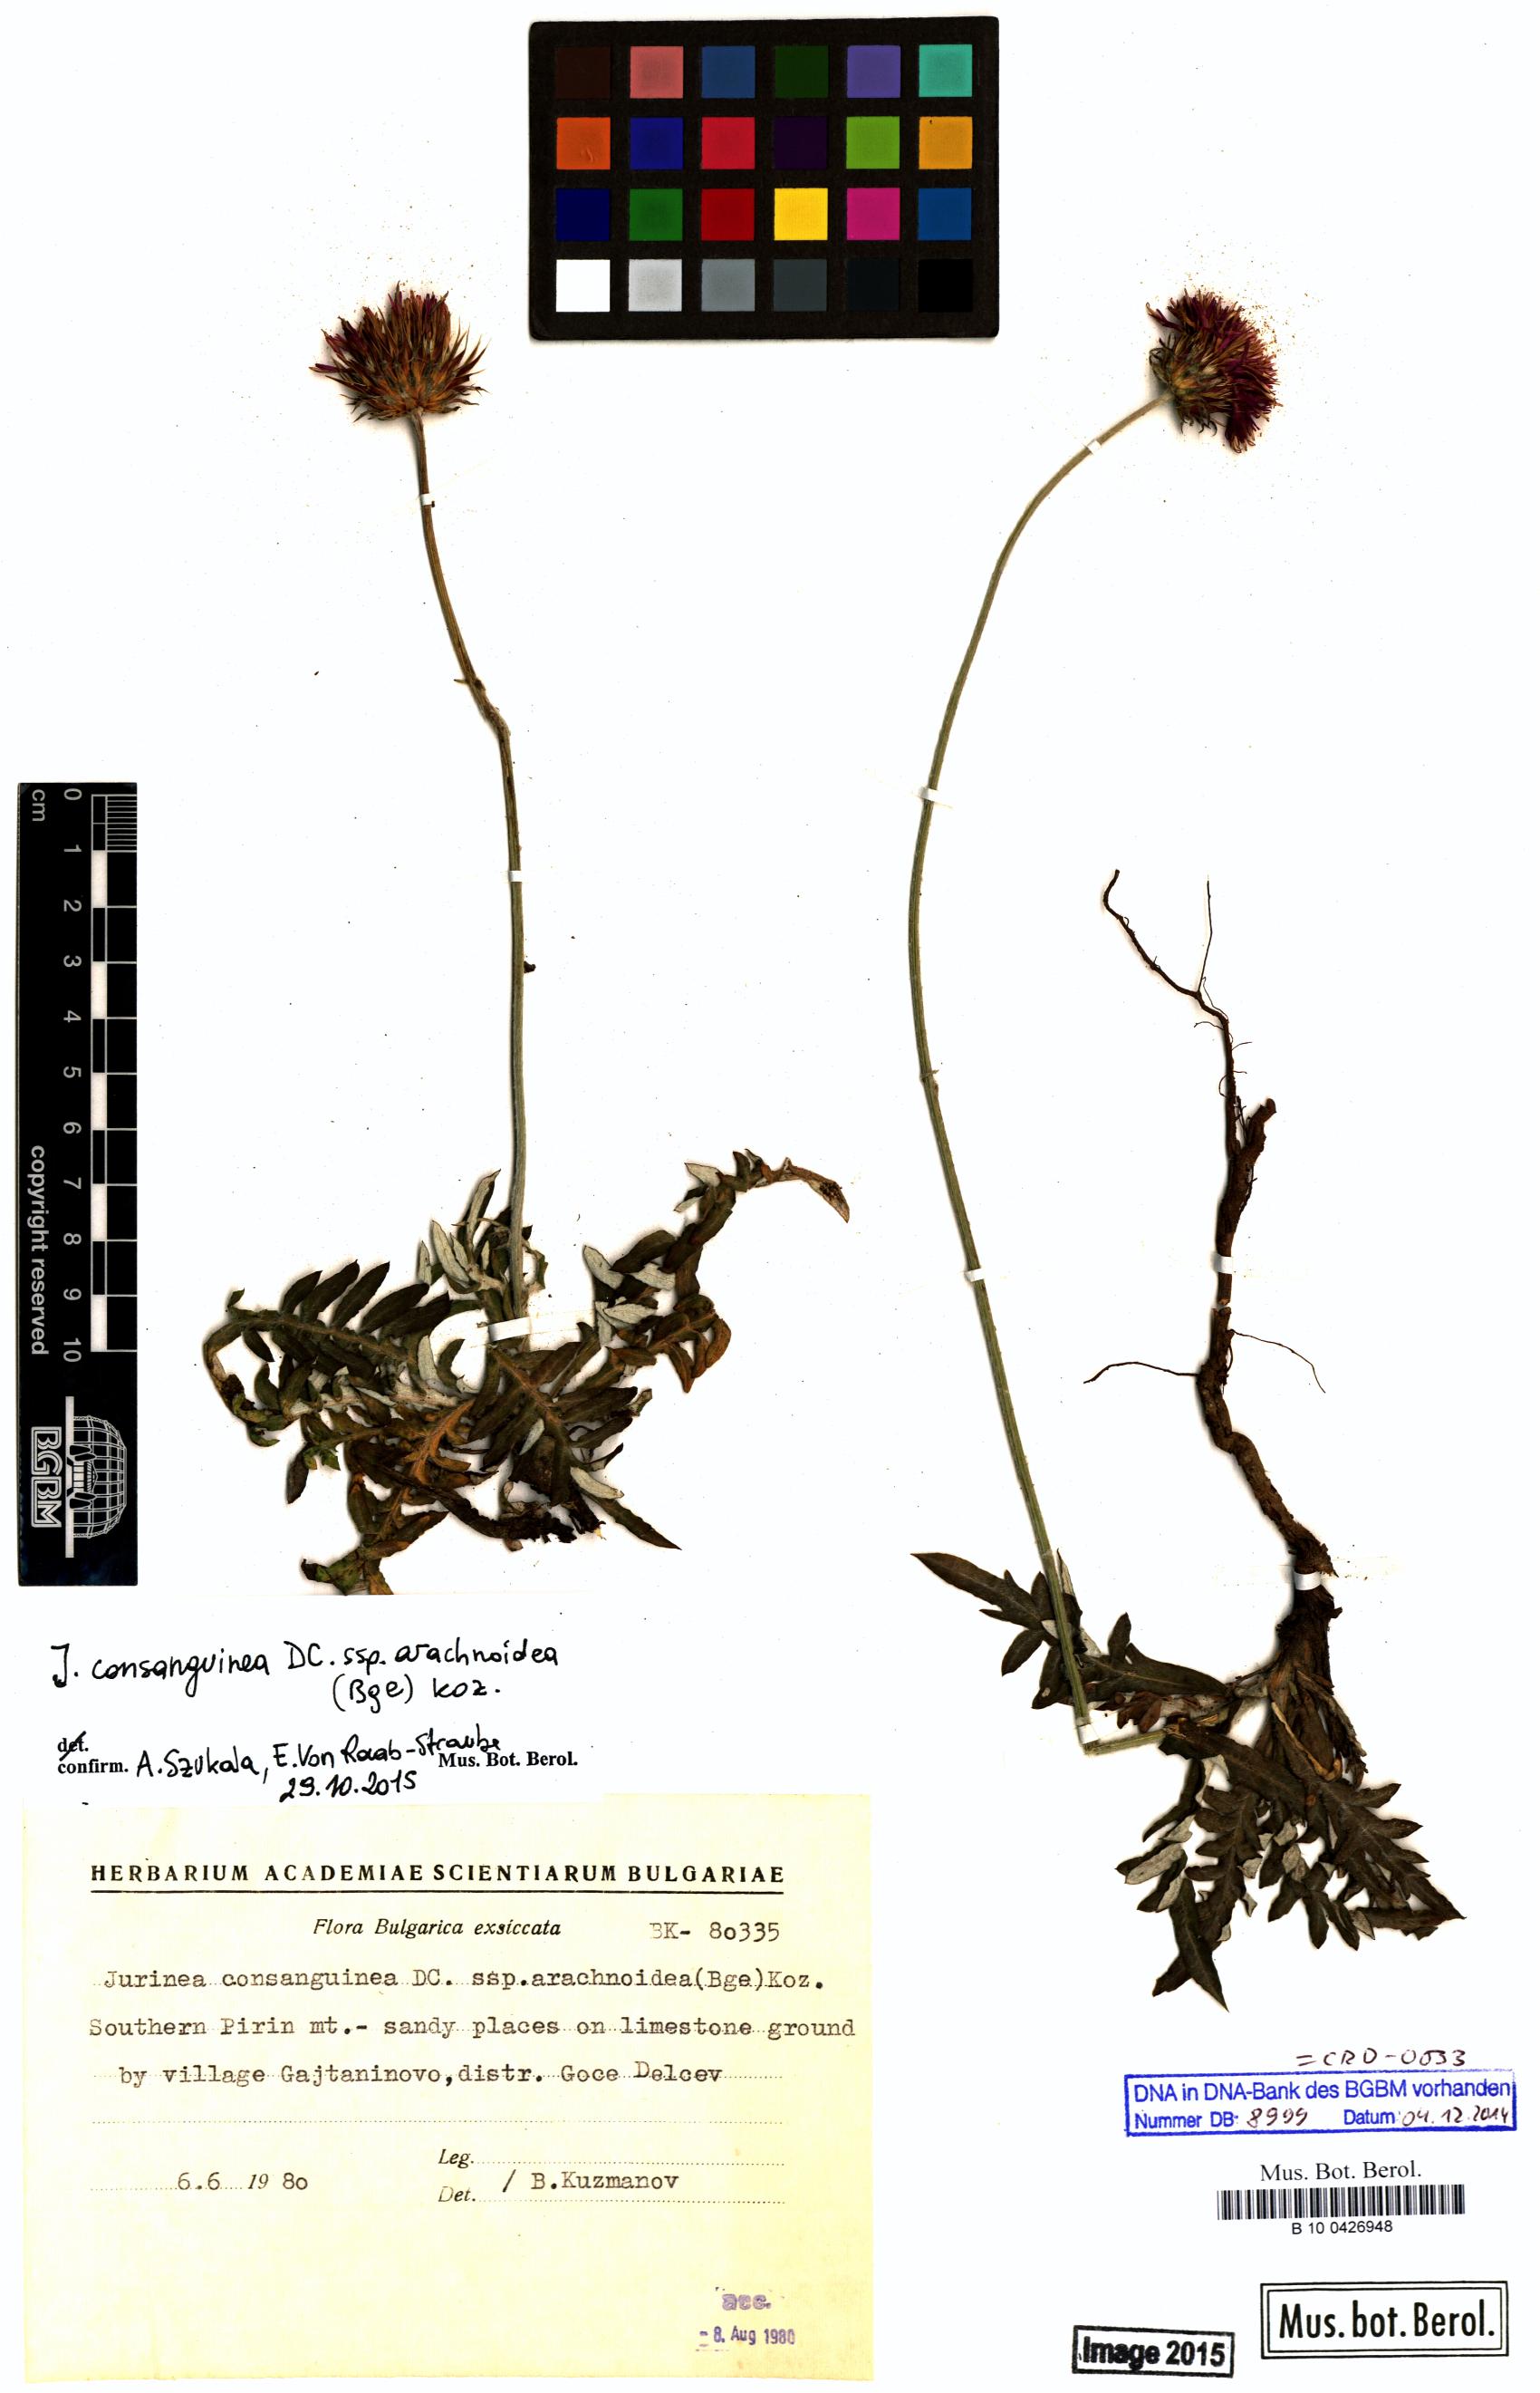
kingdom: Plantae
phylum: Tracheophyta
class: Magnoliopsida
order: Asterales
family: Asteraceae
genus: Jurinea
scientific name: Jurinea consanguinea
